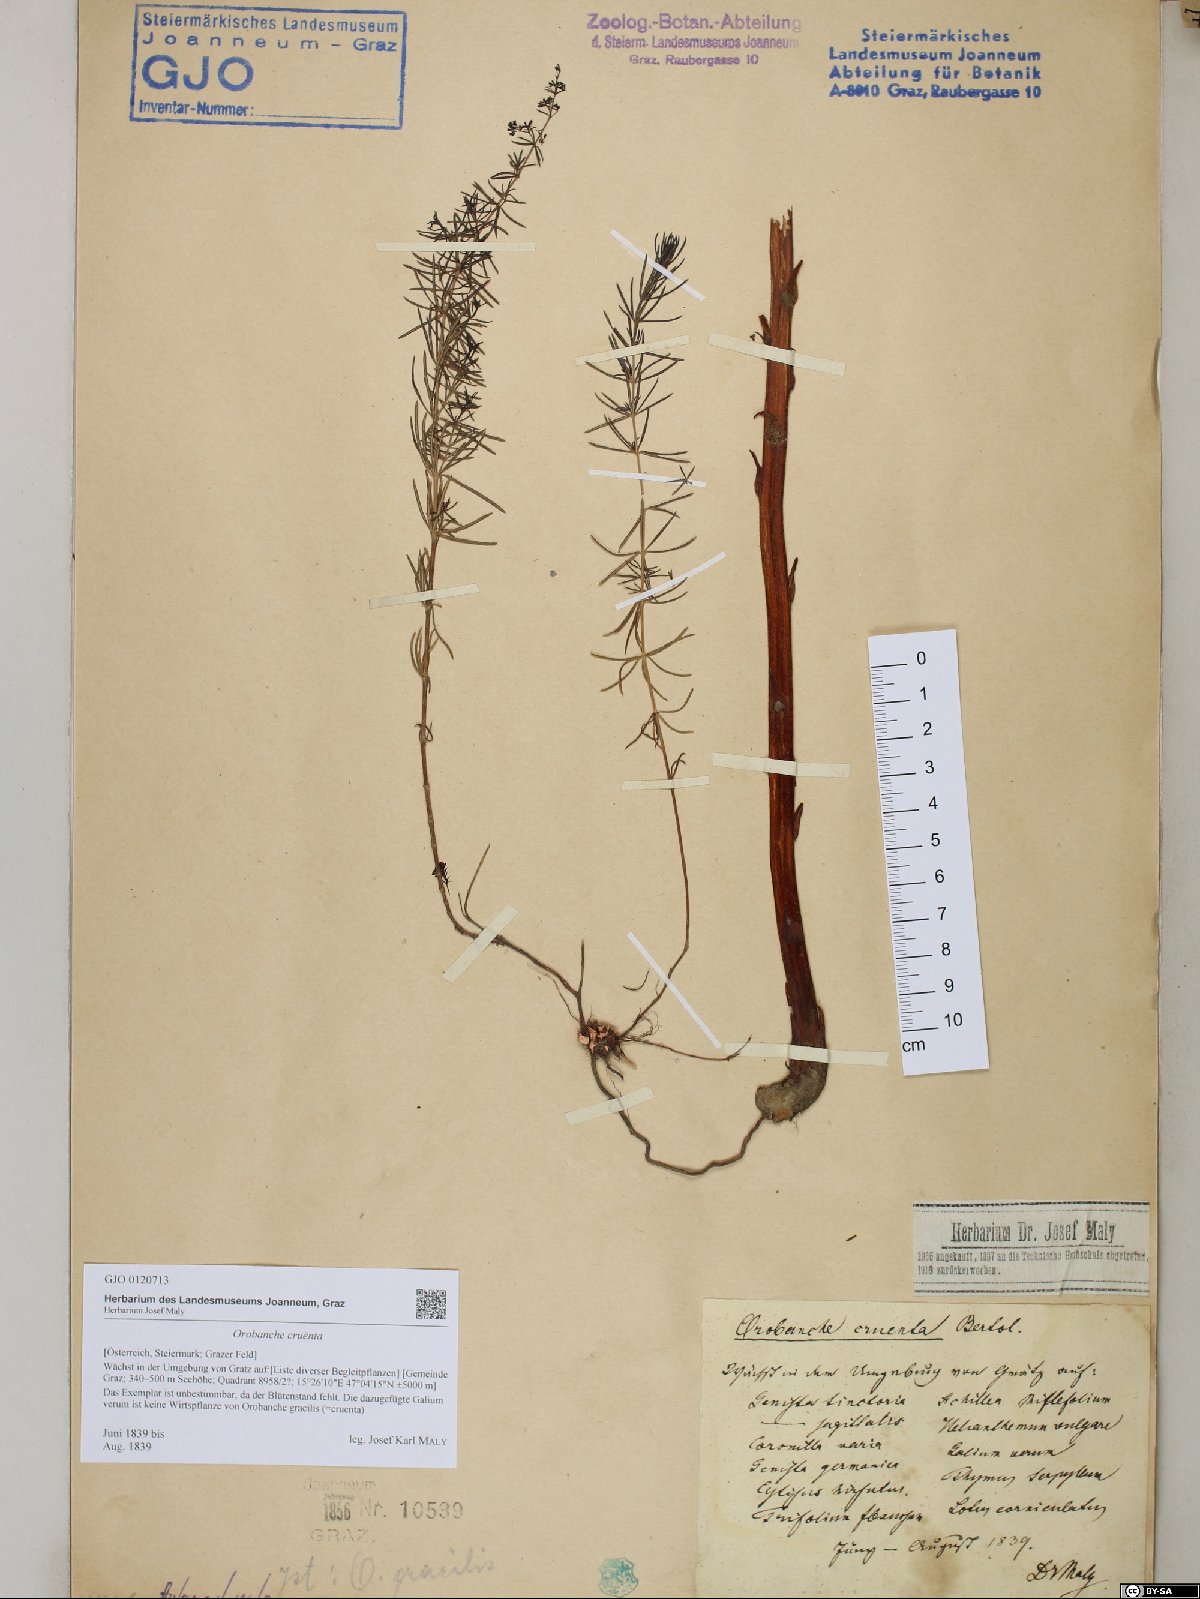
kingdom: Plantae
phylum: Tracheophyta
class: Magnoliopsida
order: Lamiales
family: Orobanchaceae
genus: Orobanche
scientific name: Orobanche gracilis
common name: Slender broomrape
